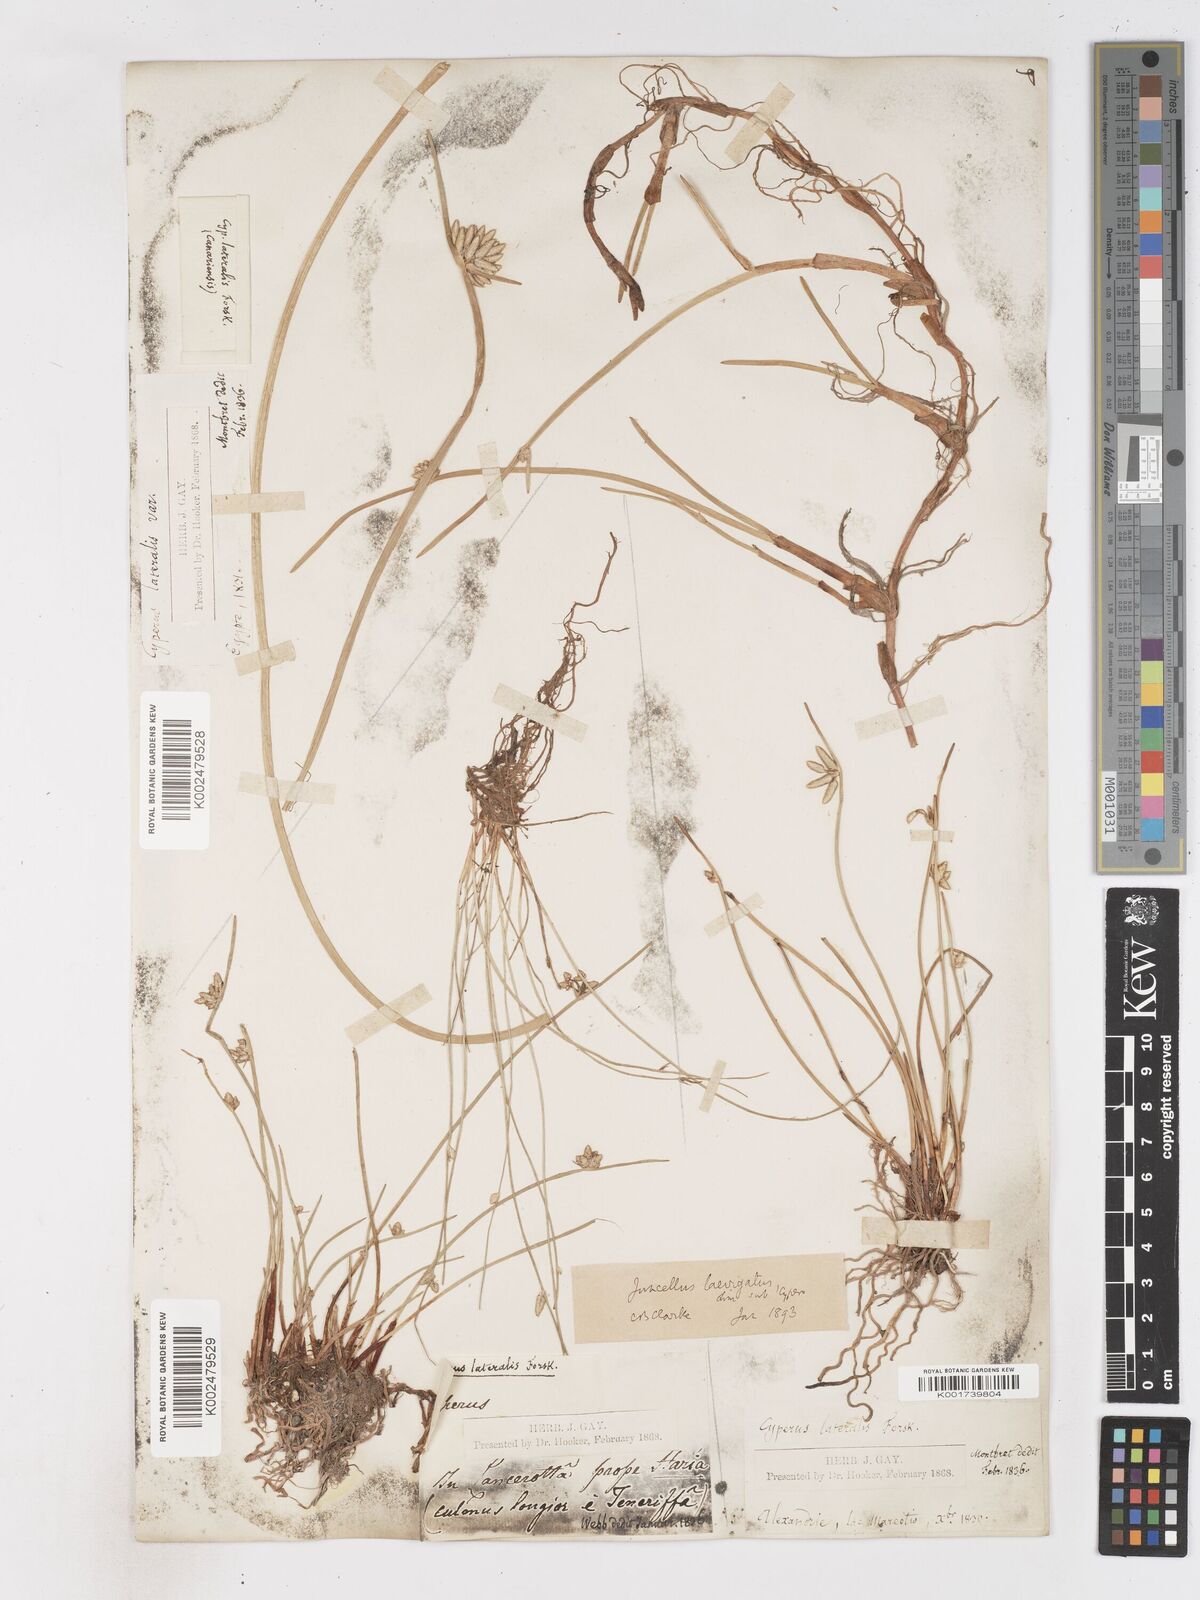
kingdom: Plantae
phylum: Tracheophyta
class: Liliopsida
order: Poales
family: Cyperaceae
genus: Cyperus
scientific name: Cyperus laevigatus
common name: Smooth flat sedge
